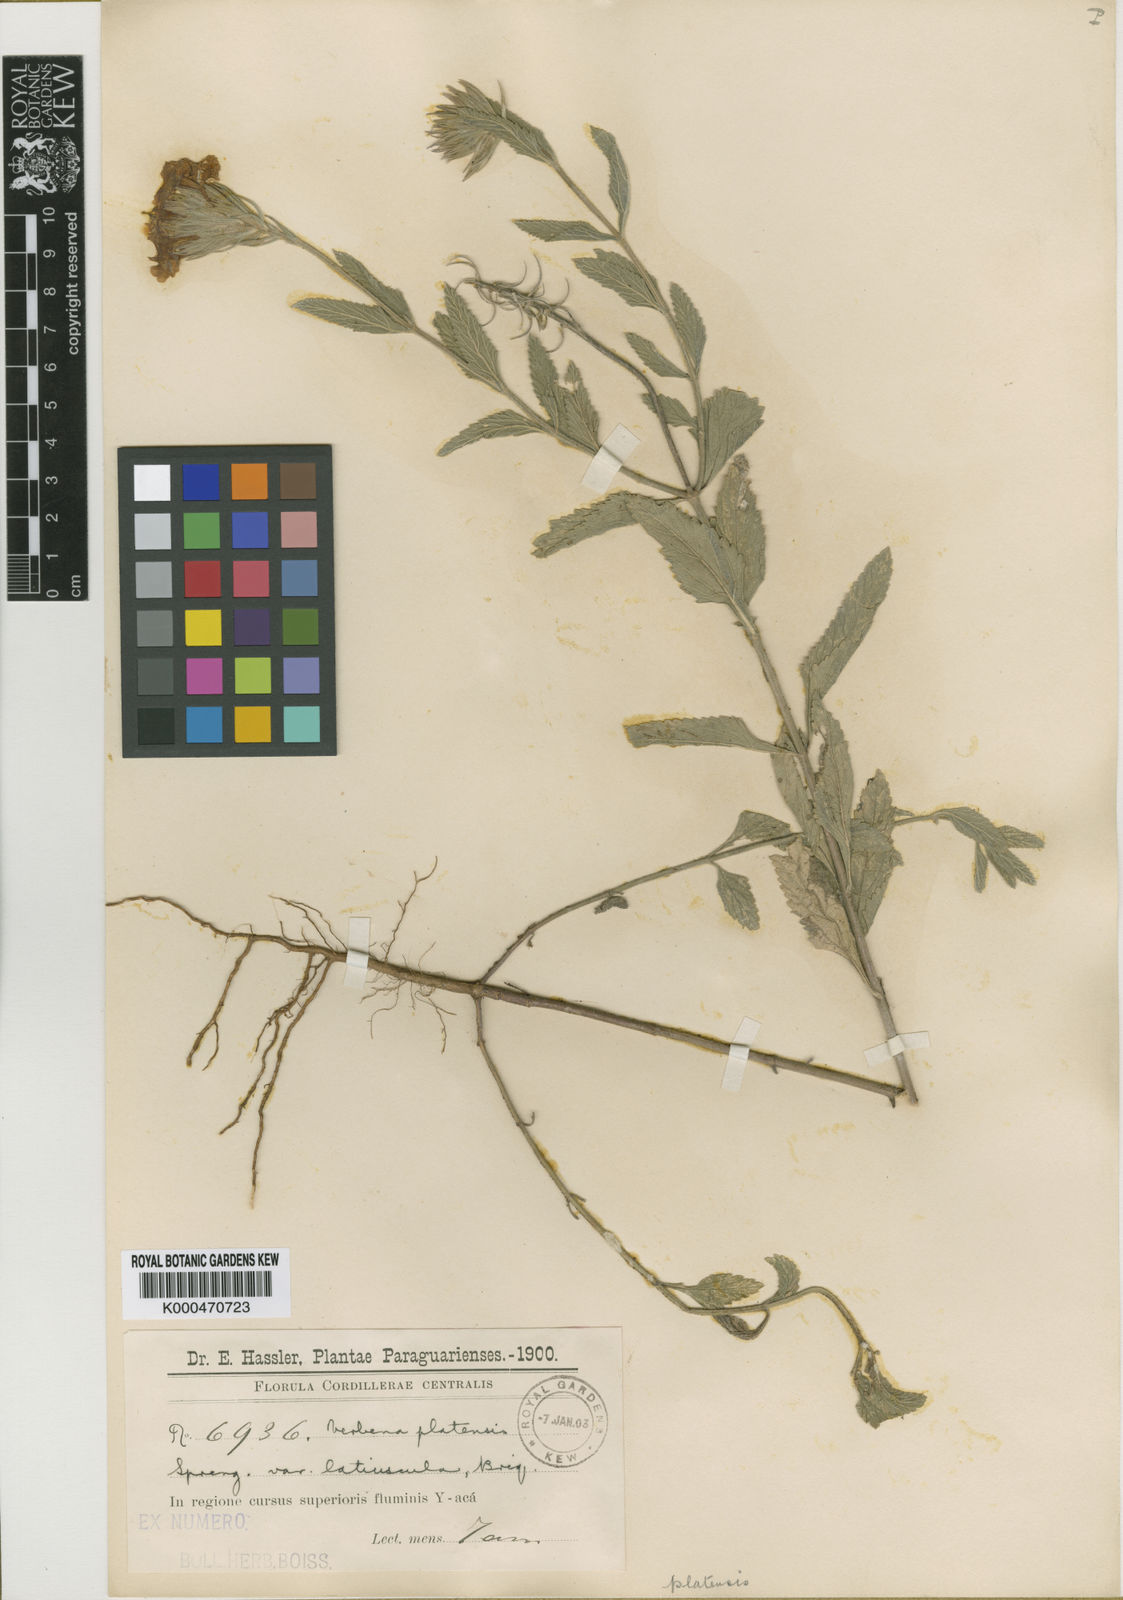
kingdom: Plantae
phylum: Tracheophyta
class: Magnoliopsida
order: Lamiales
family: Verbenaceae
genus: Verbena
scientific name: Verbena platensis
